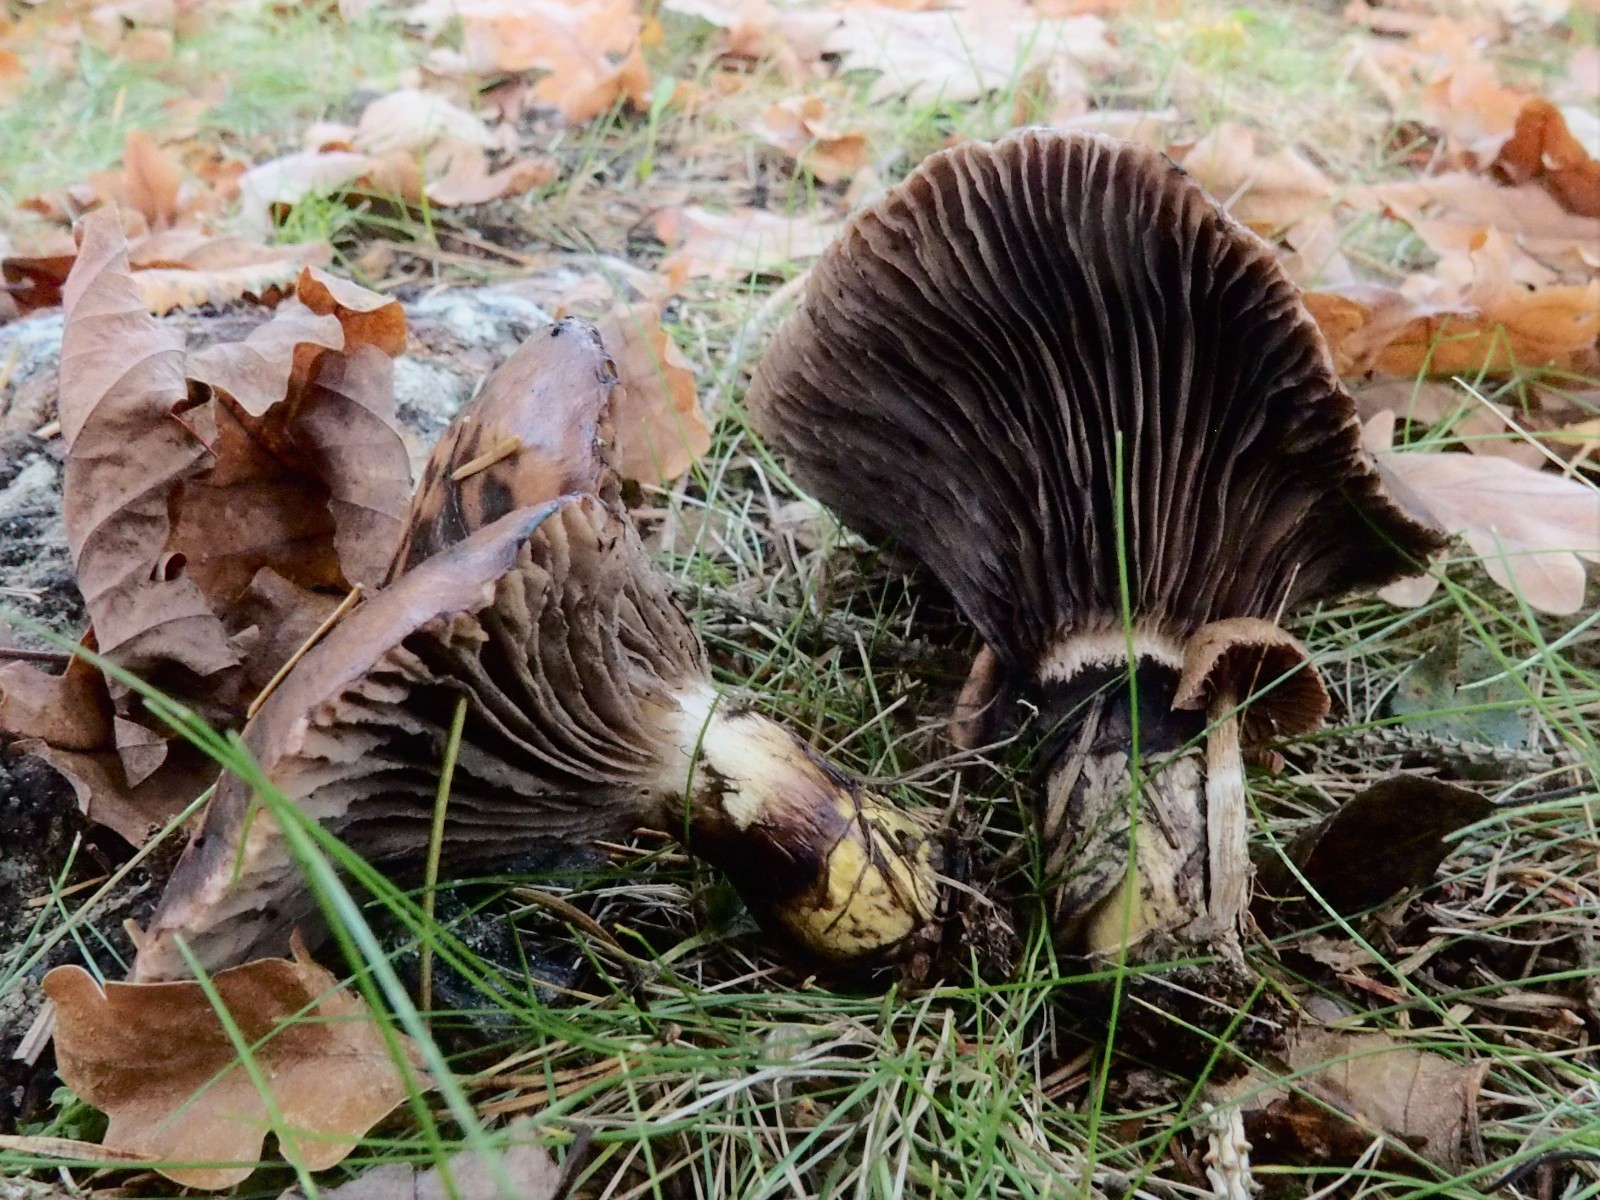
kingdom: Fungi
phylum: Basidiomycota
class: Agaricomycetes
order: Boletales
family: Gomphidiaceae
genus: Gomphidius
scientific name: Gomphidius glutinosus
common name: grå slimslør
